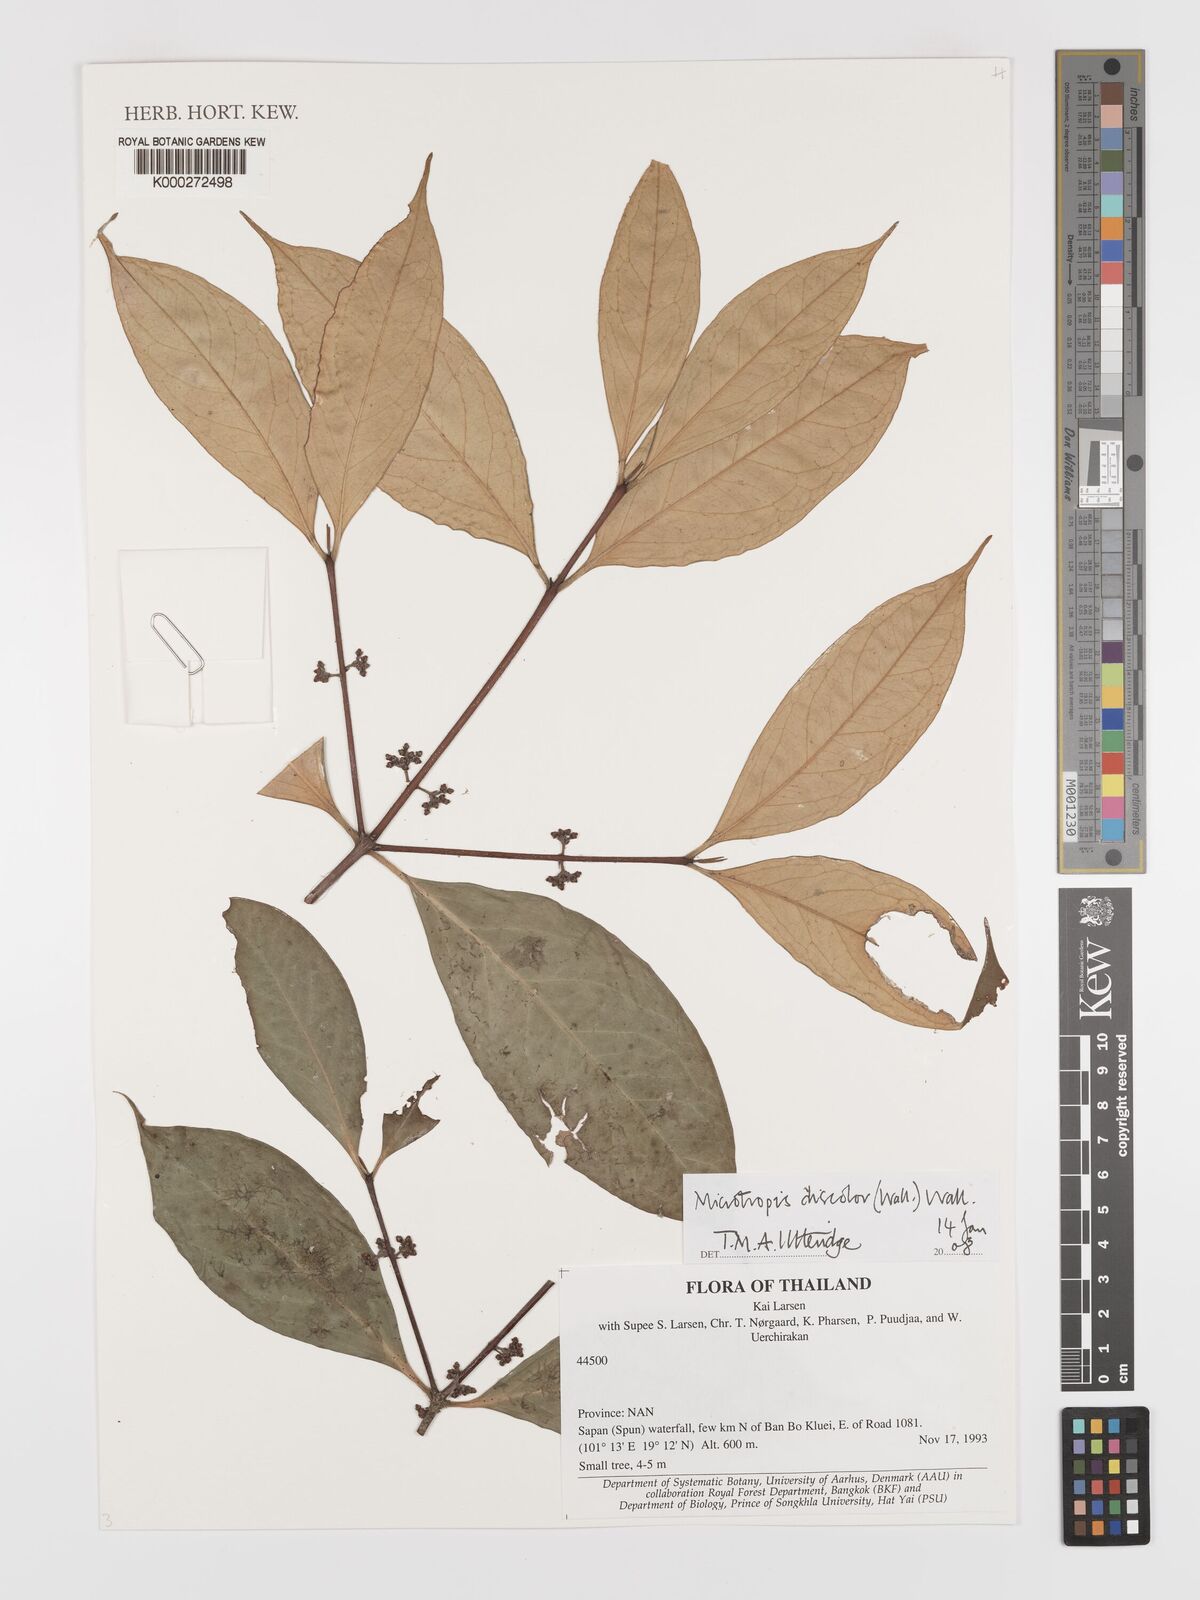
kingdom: Plantae
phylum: Tracheophyta
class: Magnoliopsida
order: Celastrales
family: Celastraceae
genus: Microtropis
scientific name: Microtropis
